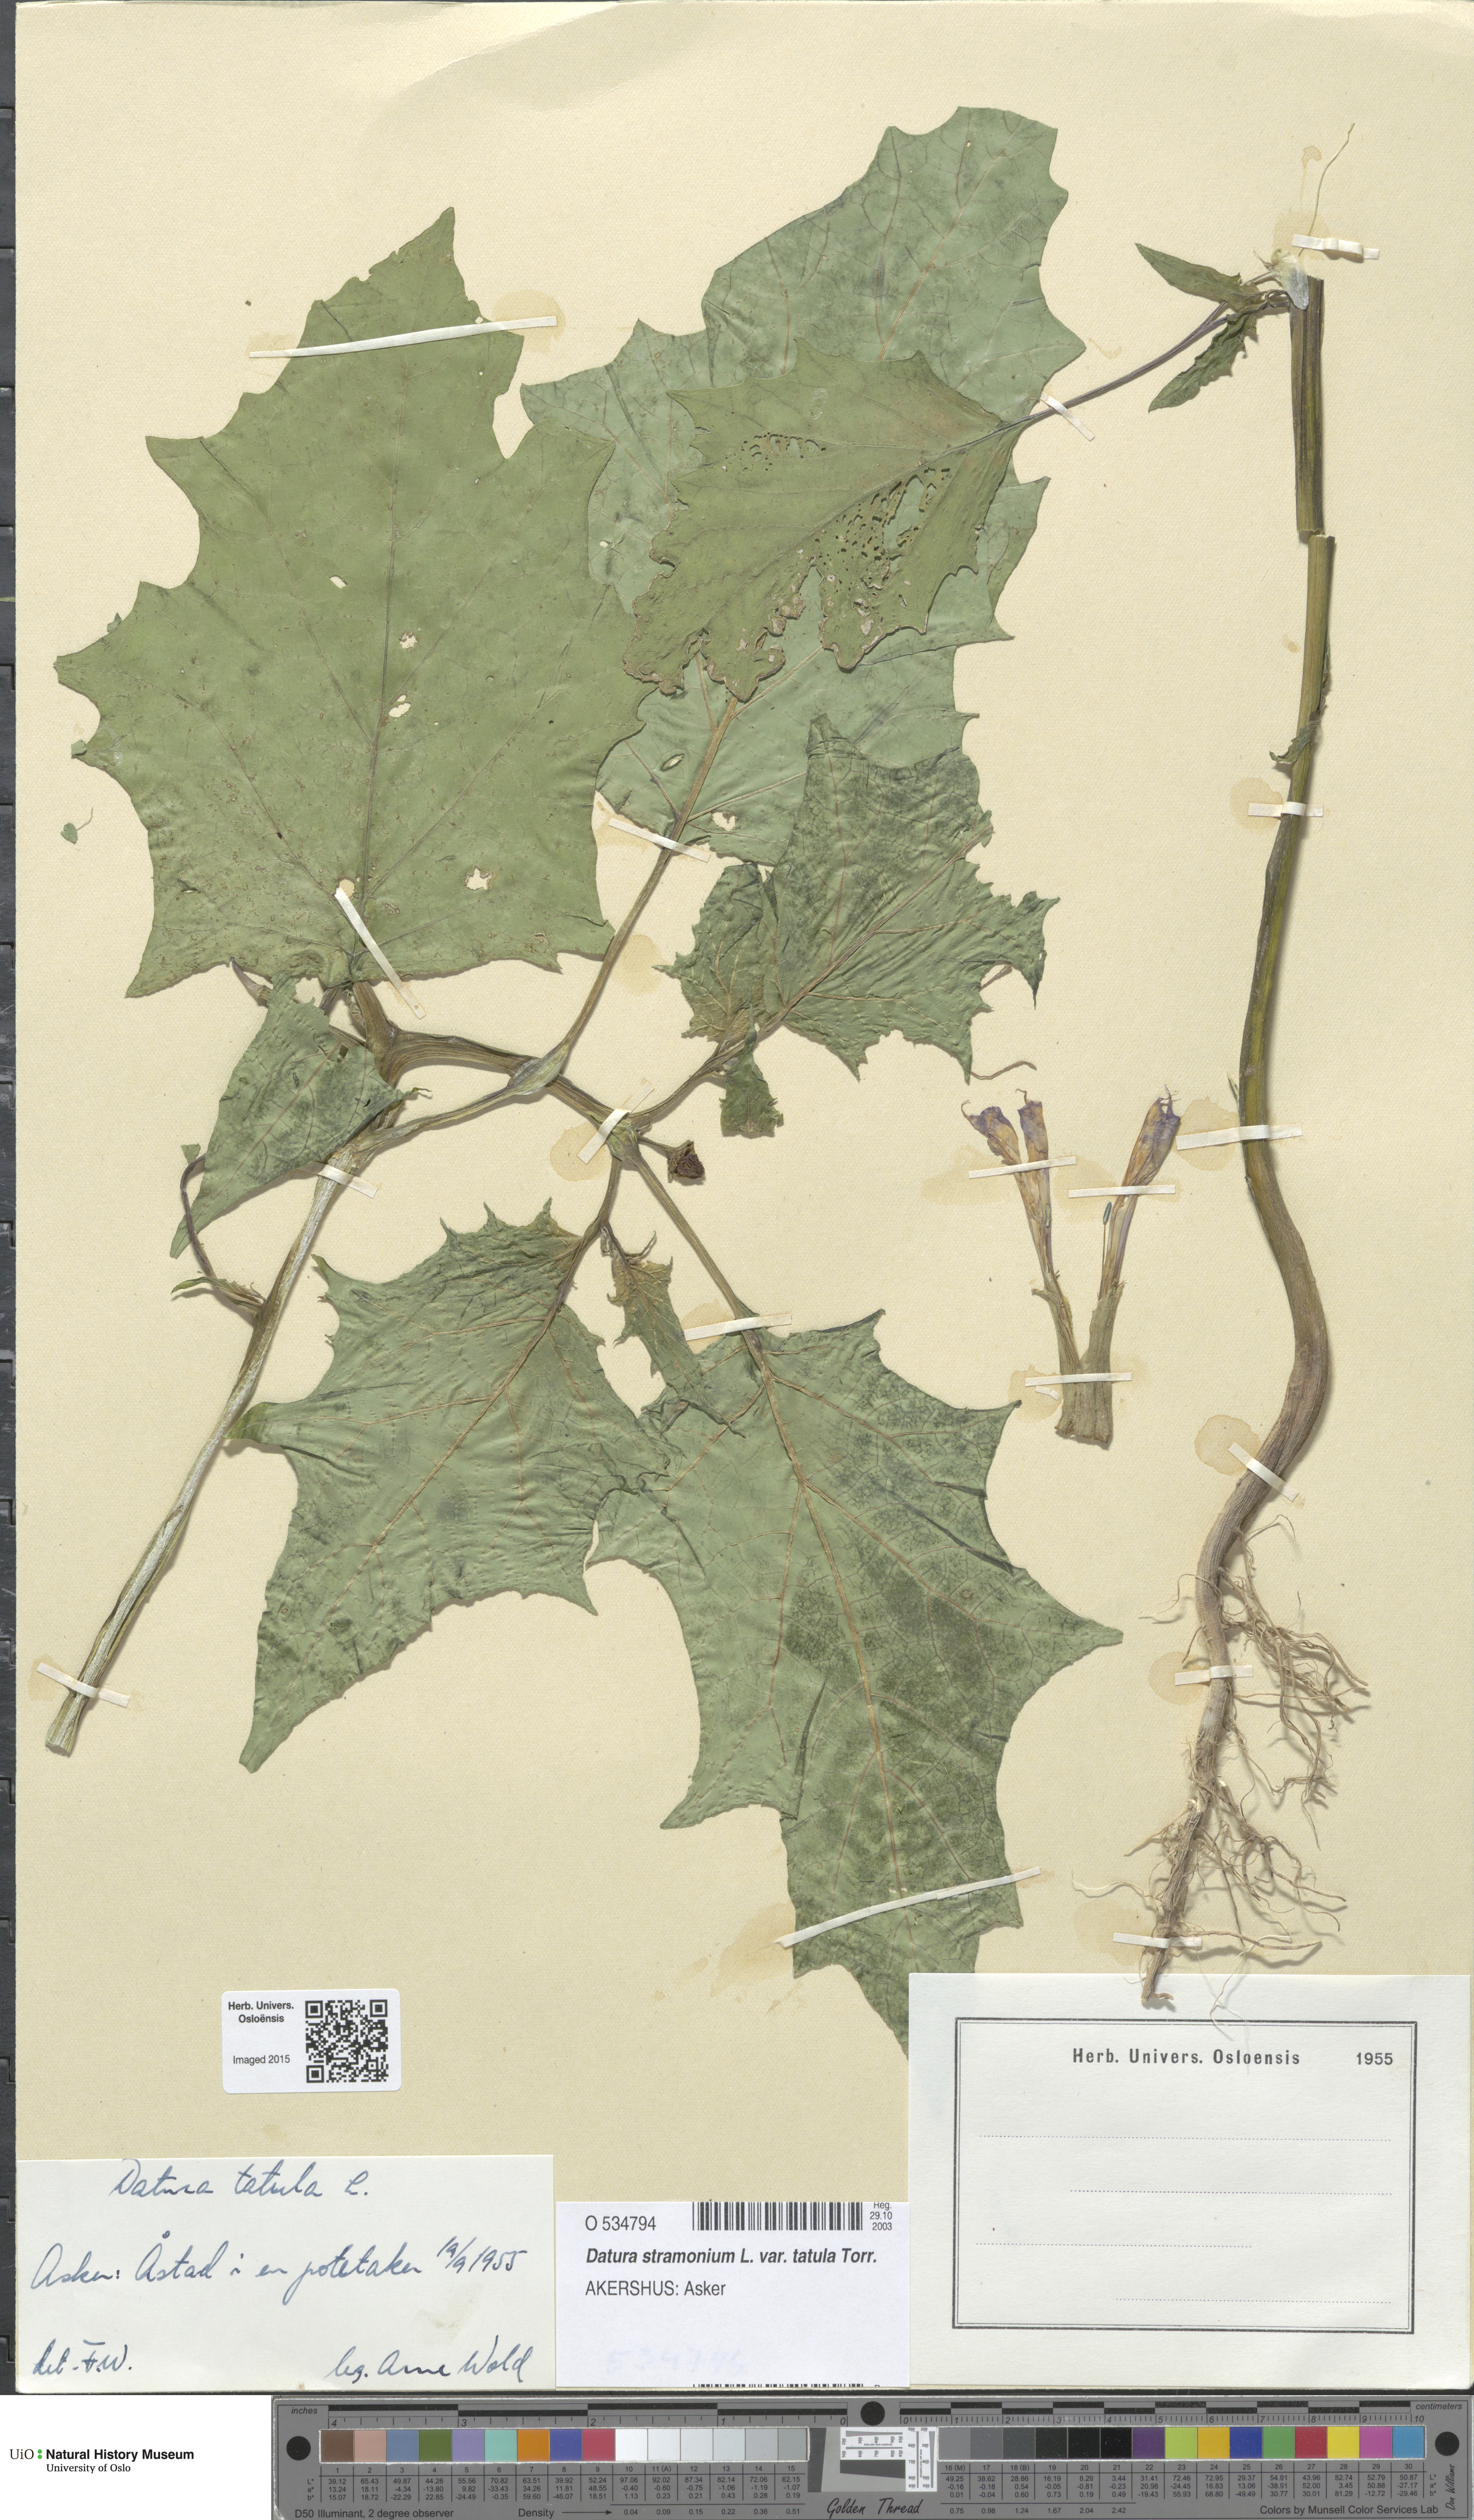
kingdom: Plantae
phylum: Tracheophyta
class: Magnoliopsida
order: Solanales
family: Solanaceae
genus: Datura
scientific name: Datura stramonium
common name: Thorn-apple
